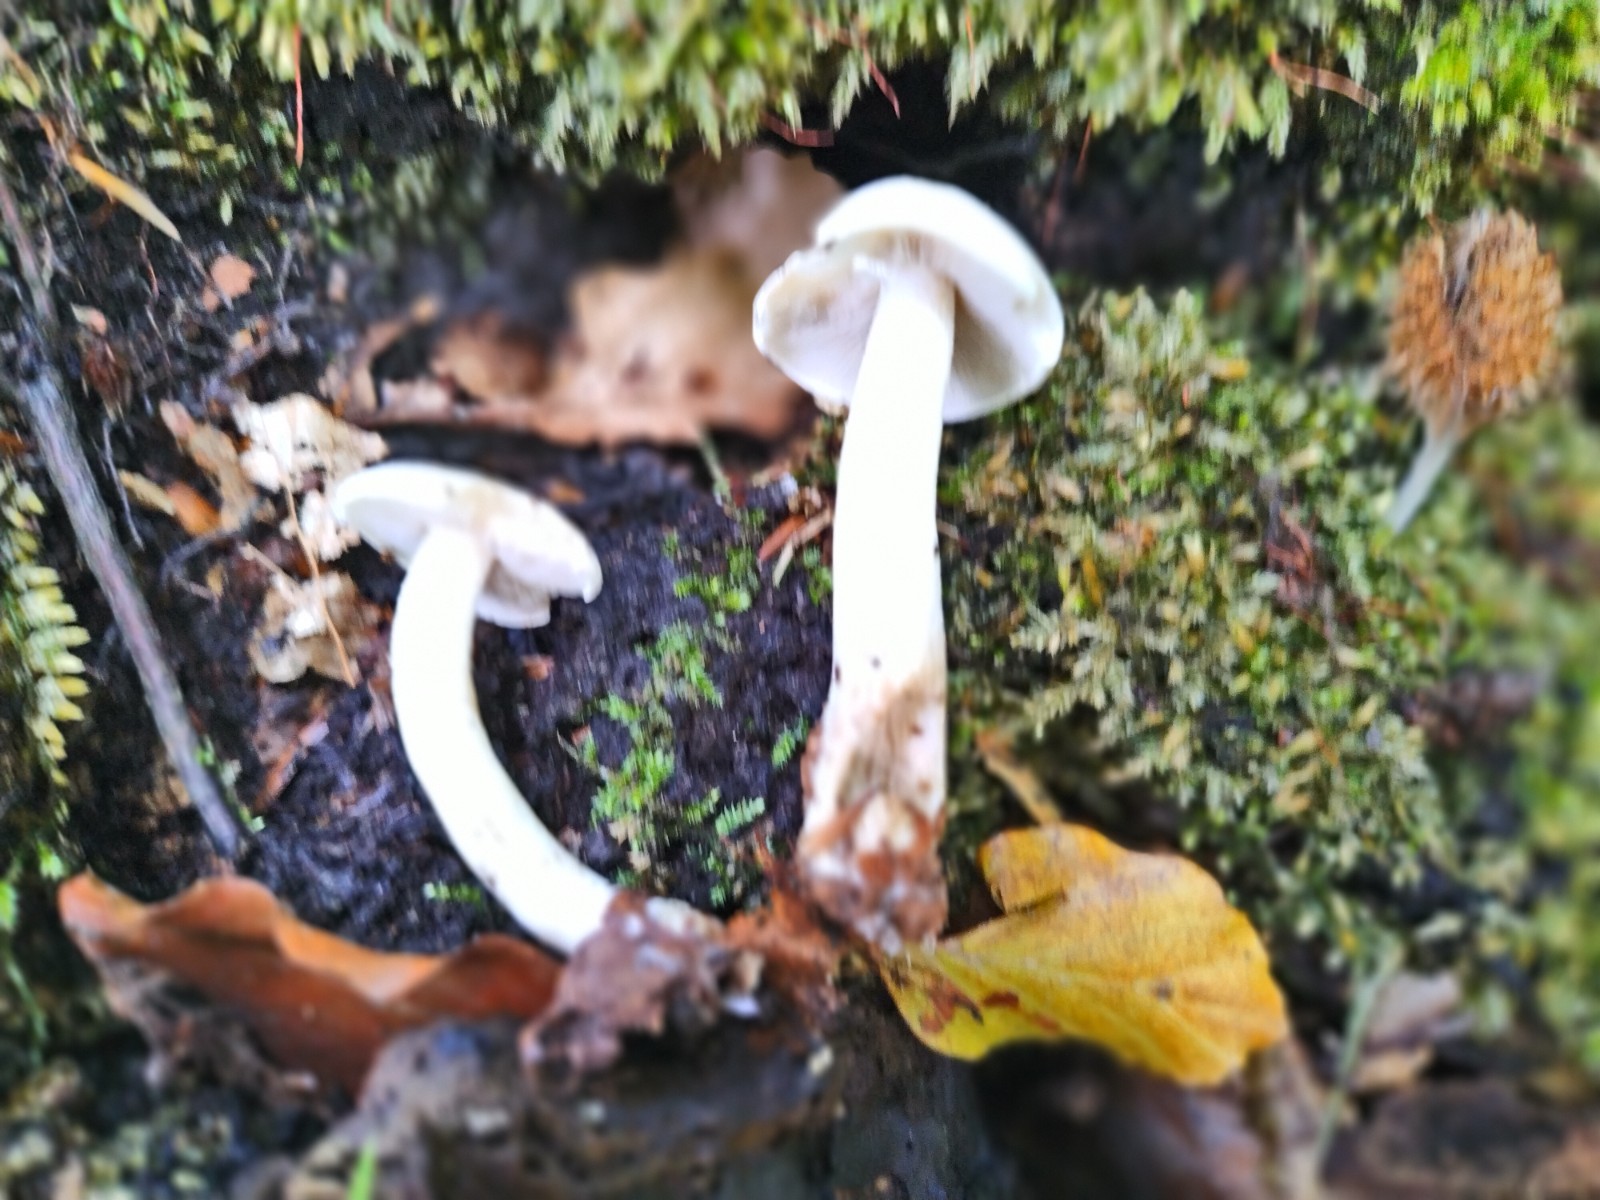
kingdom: Fungi
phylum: Basidiomycota
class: Agaricomycetes
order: Agaricales
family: Tricholomataceae
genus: Tricholoma
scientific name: Tricholoma lascivum
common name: stinkende ridderhat
